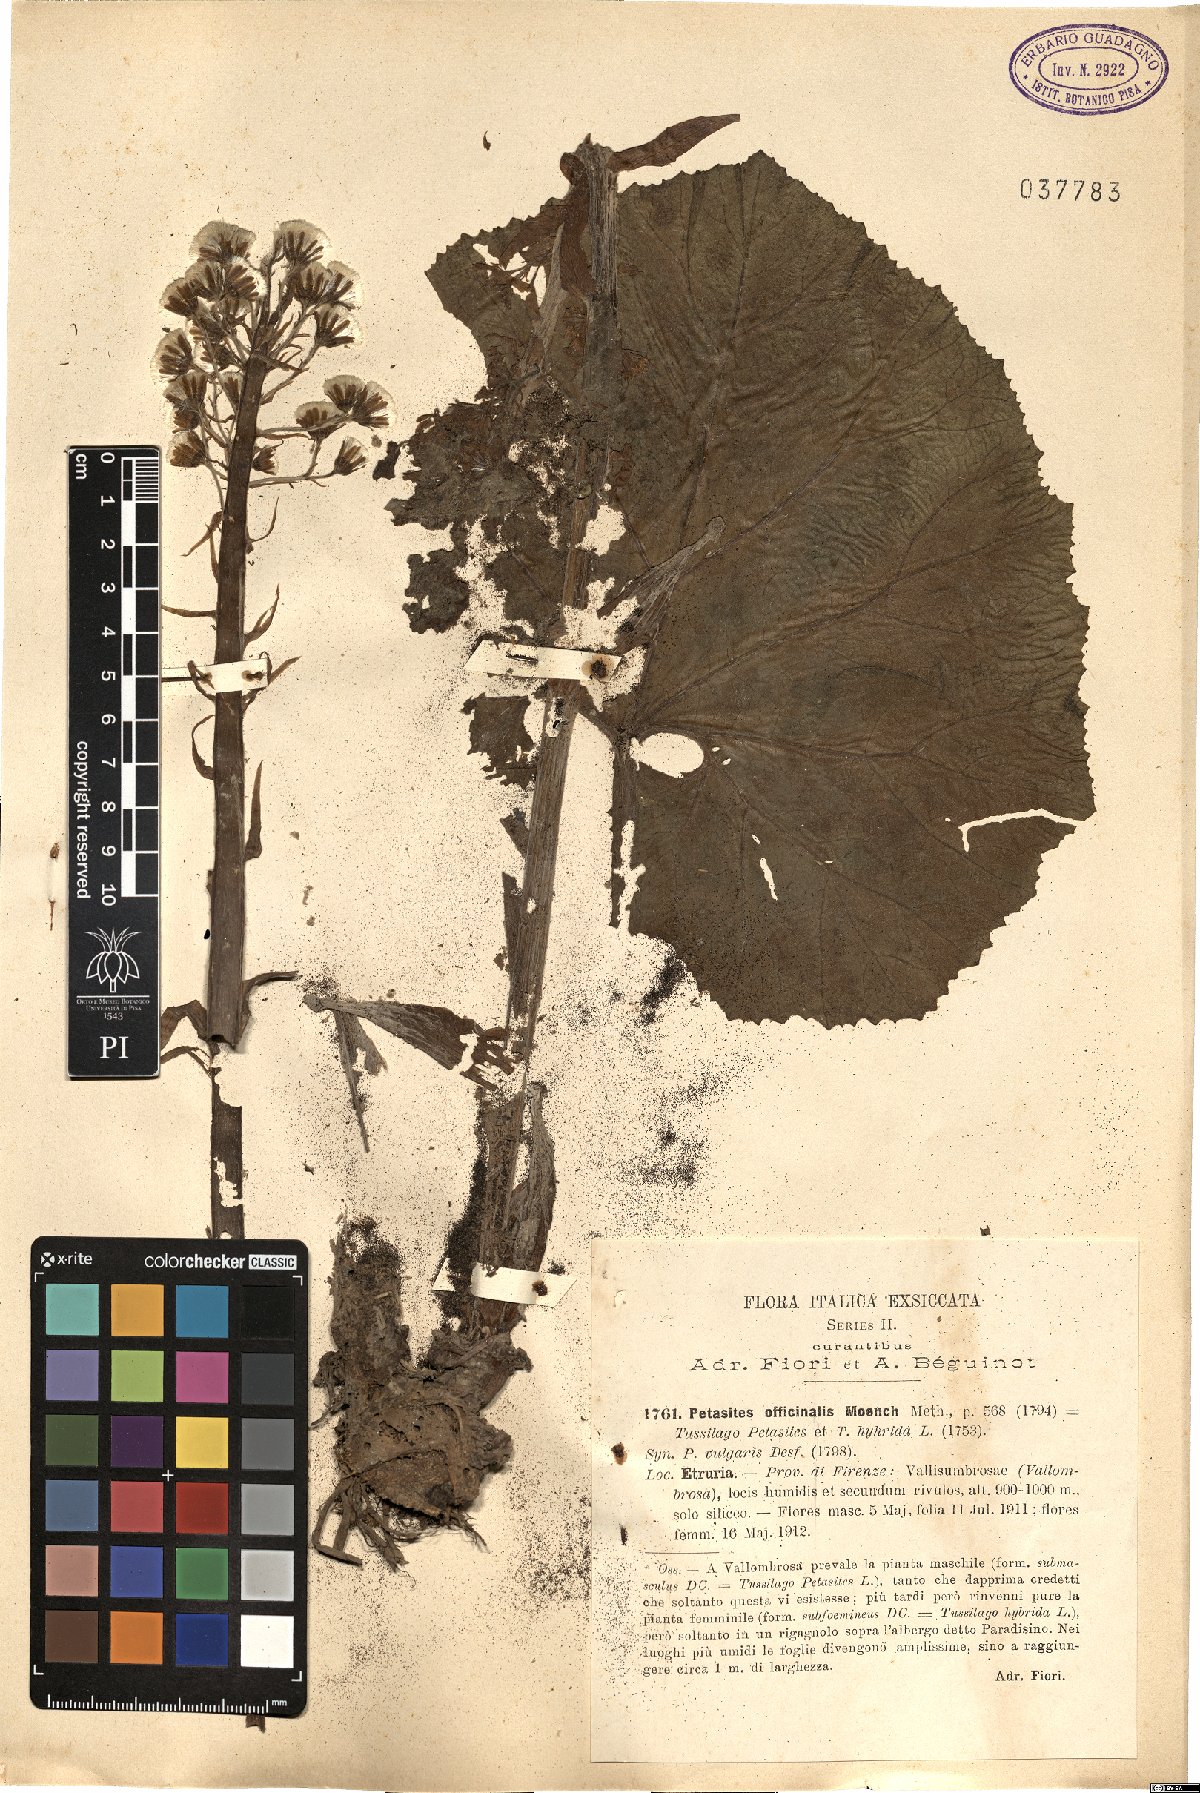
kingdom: Plantae
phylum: Tracheophyta
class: Magnoliopsida
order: Asterales
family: Asteraceae
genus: Petasites
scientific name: Petasites hybridus
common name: Butterbur
